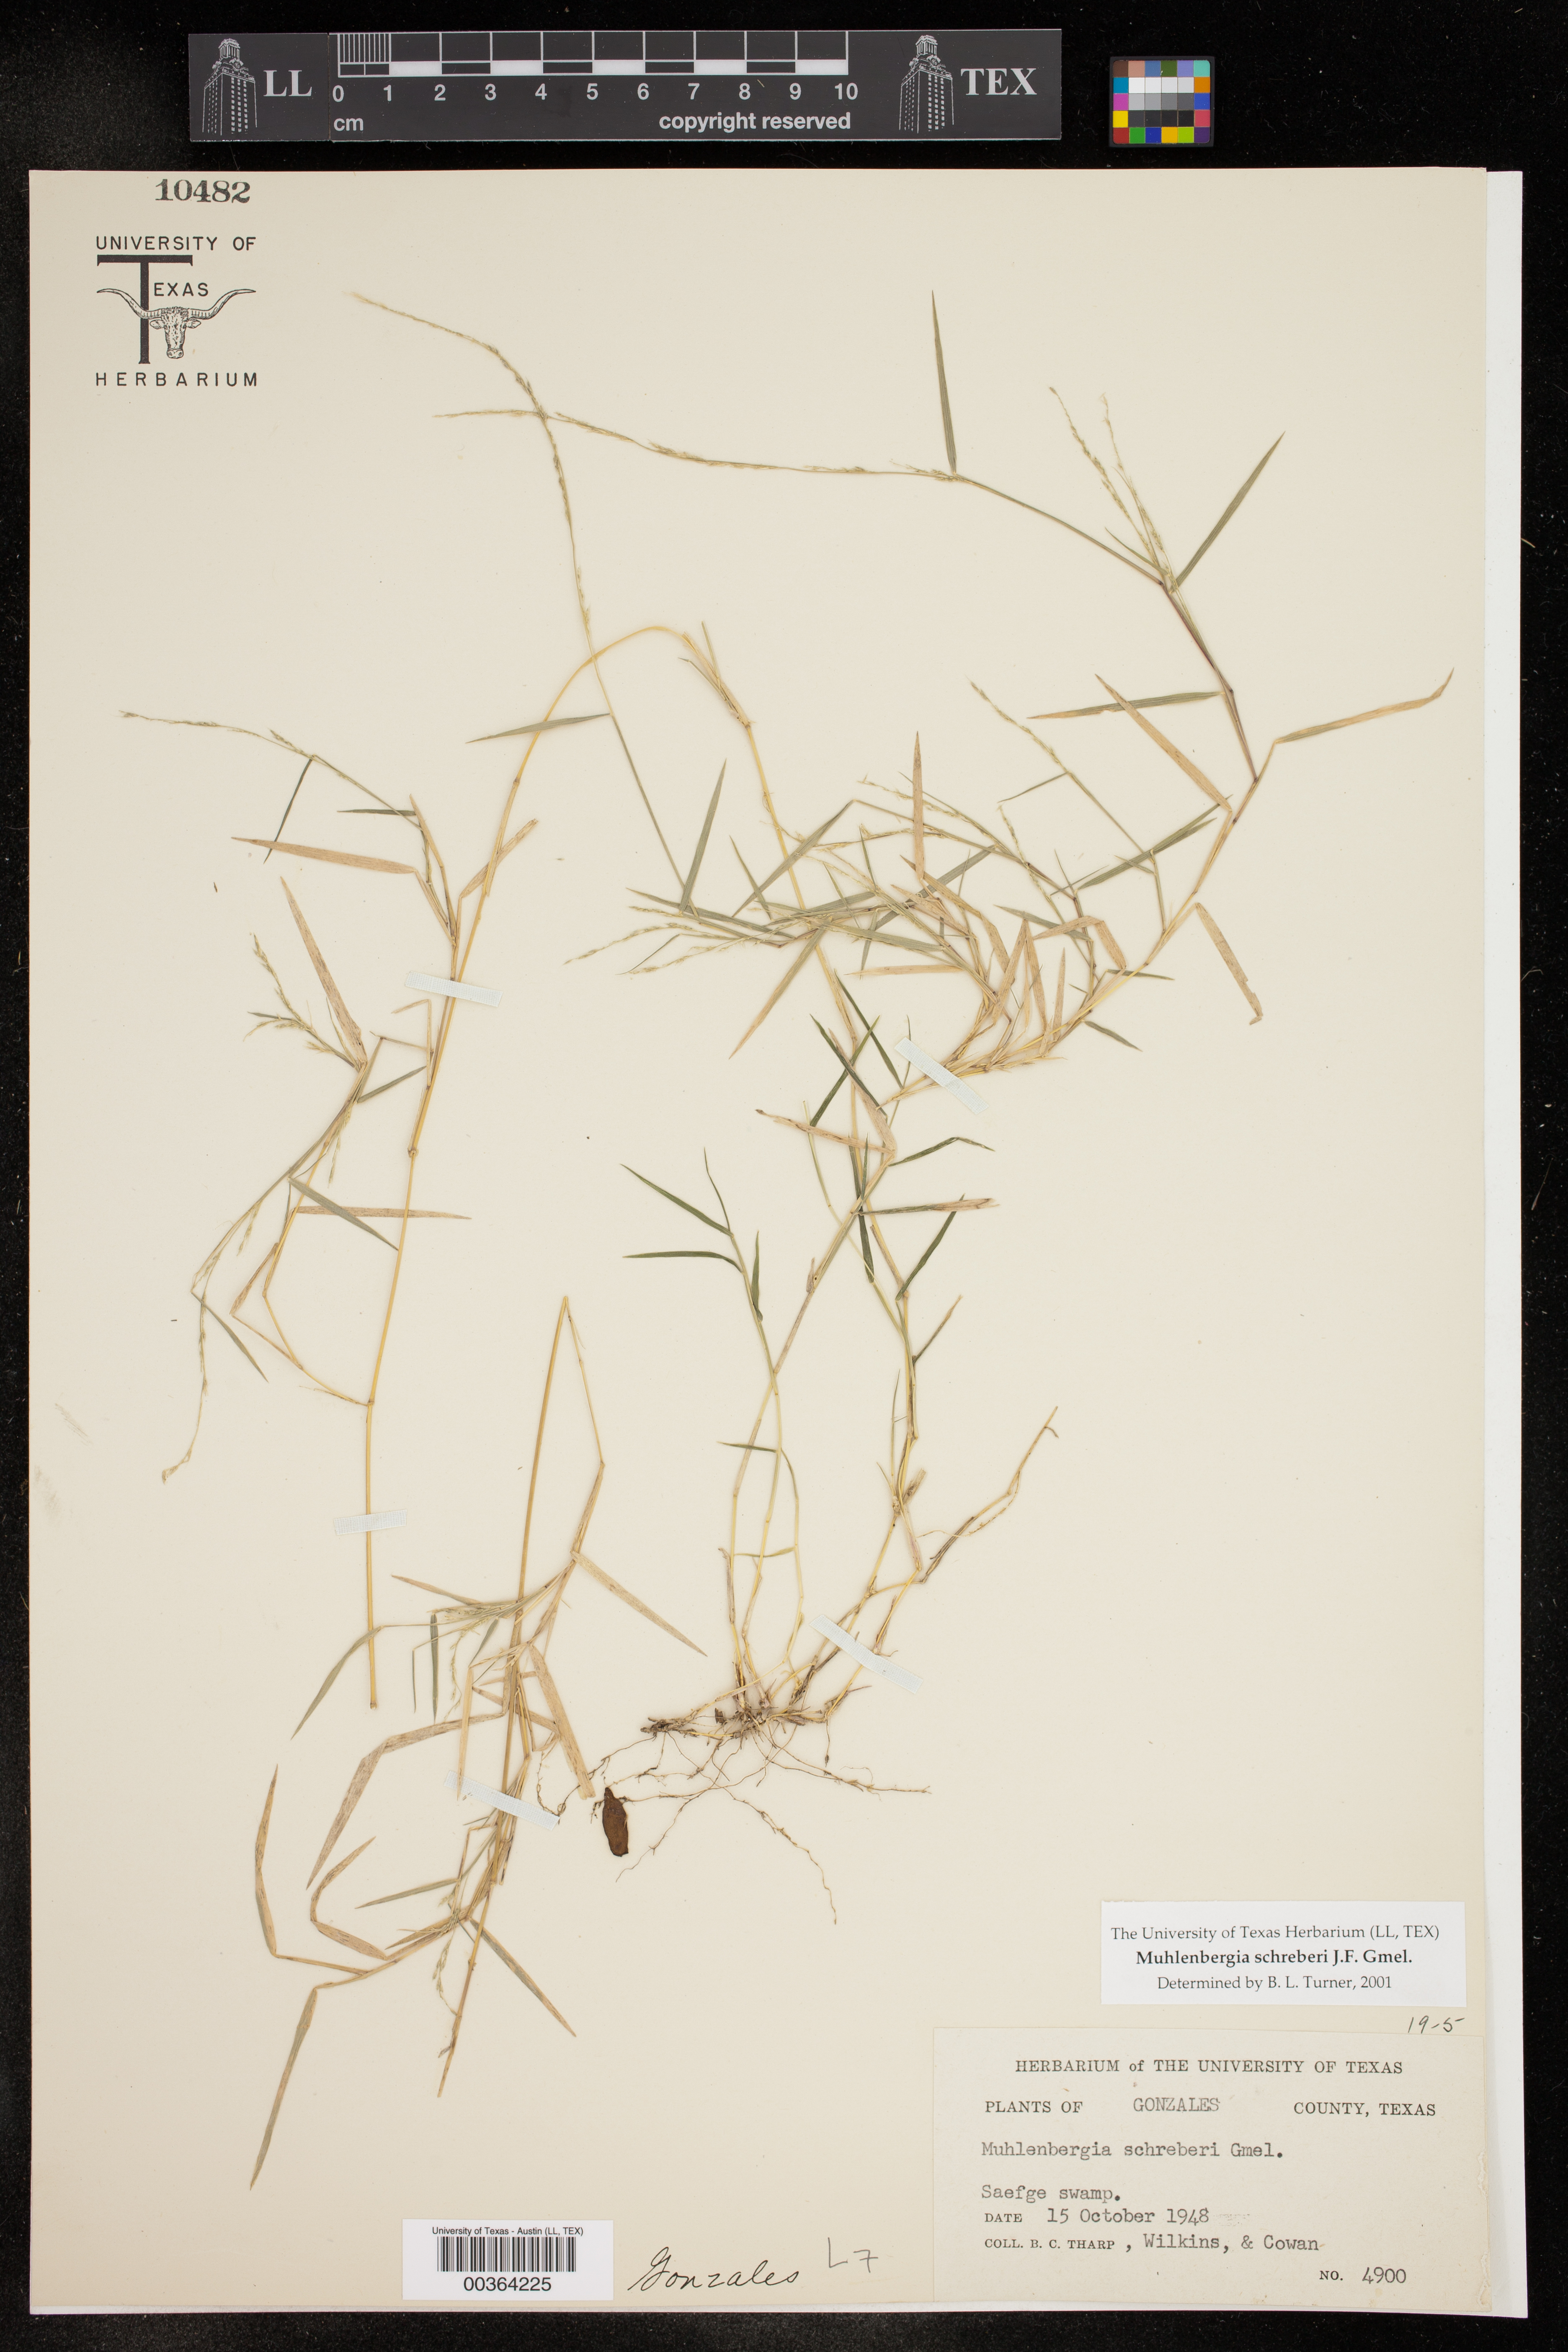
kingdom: Plantae
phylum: Tracheophyta
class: Liliopsida
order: Poales
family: Poaceae
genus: Muhlenbergia
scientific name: Muhlenbergia schreberi
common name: Nimblewill
